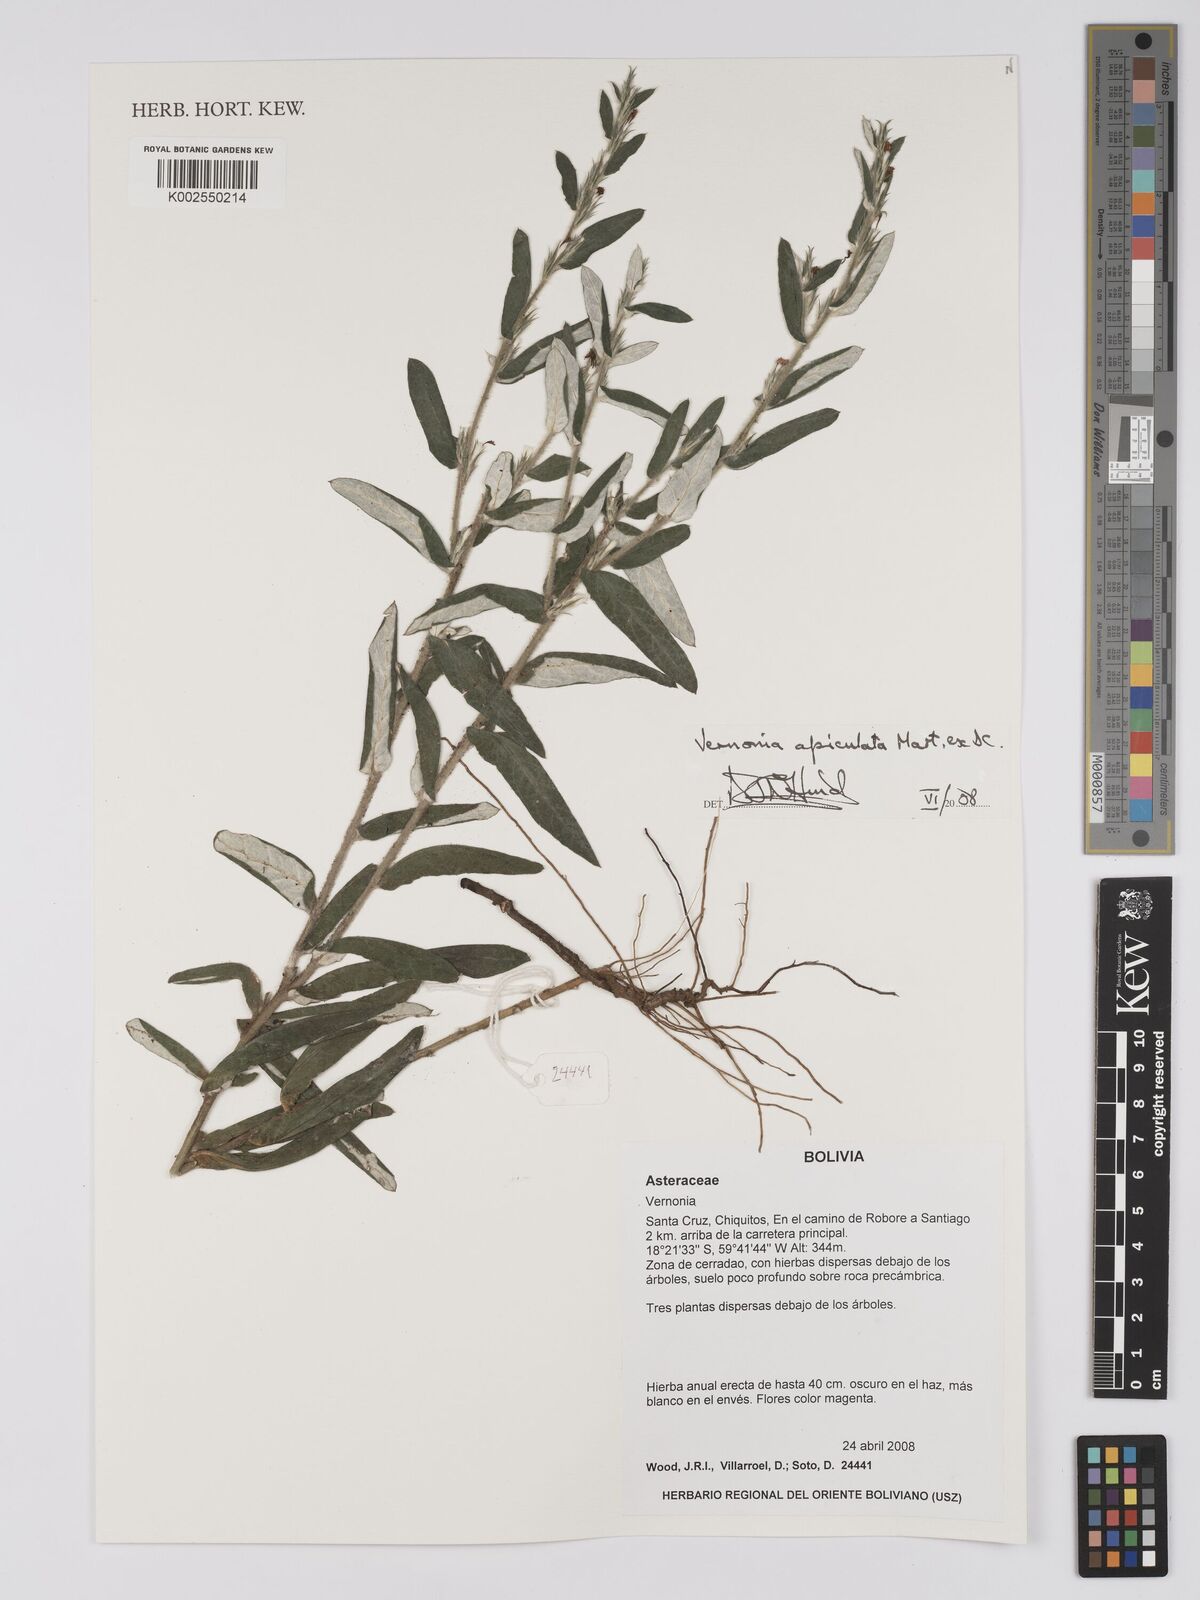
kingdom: Plantae
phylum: Tracheophyta
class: Magnoliopsida
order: Asterales
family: Asteraceae
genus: Stenocephalum
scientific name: Stenocephalum apiculatum
